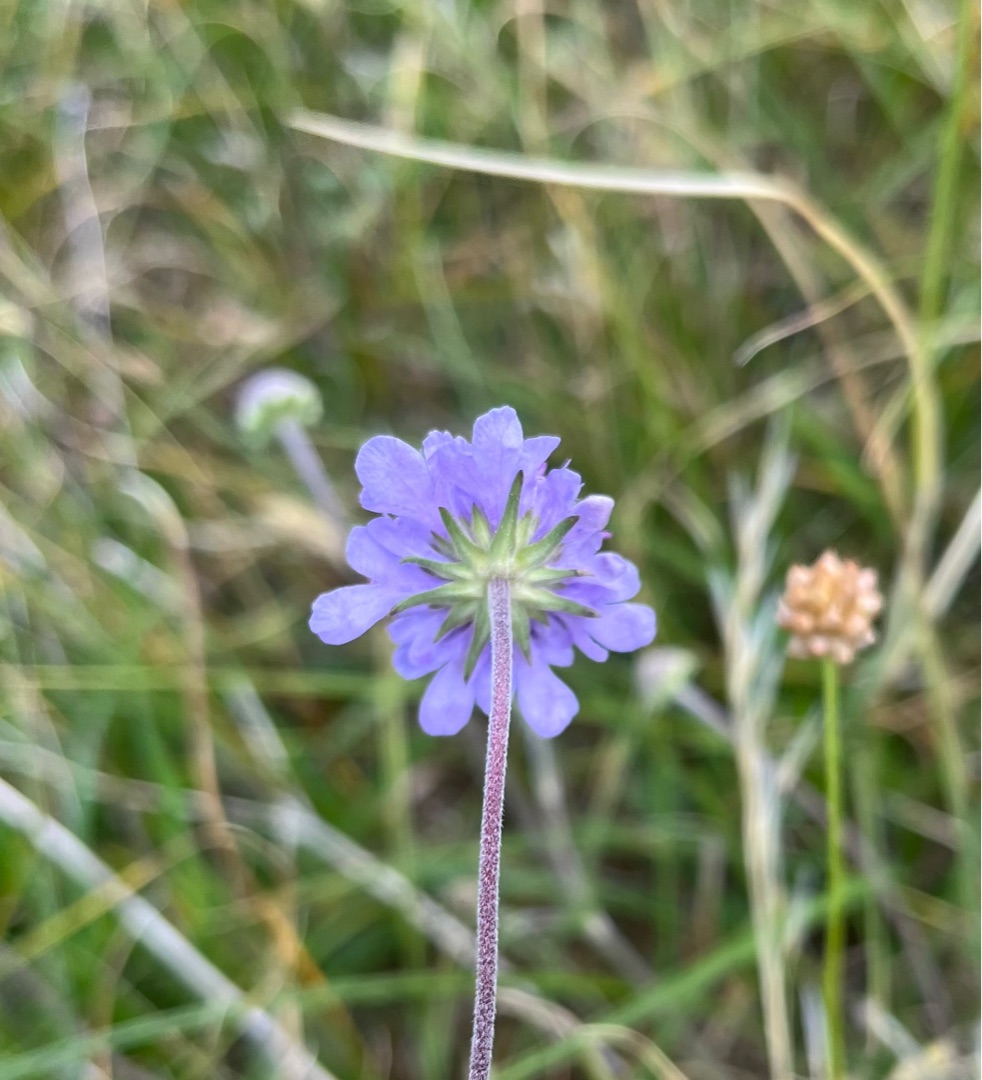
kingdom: Plantae
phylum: Tracheophyta
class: Magnoliopsida
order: Dipsacales
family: Caprifoliaceae
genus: Scabiosa
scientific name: Scabiosa canescens
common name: Vellugtende skabiose
